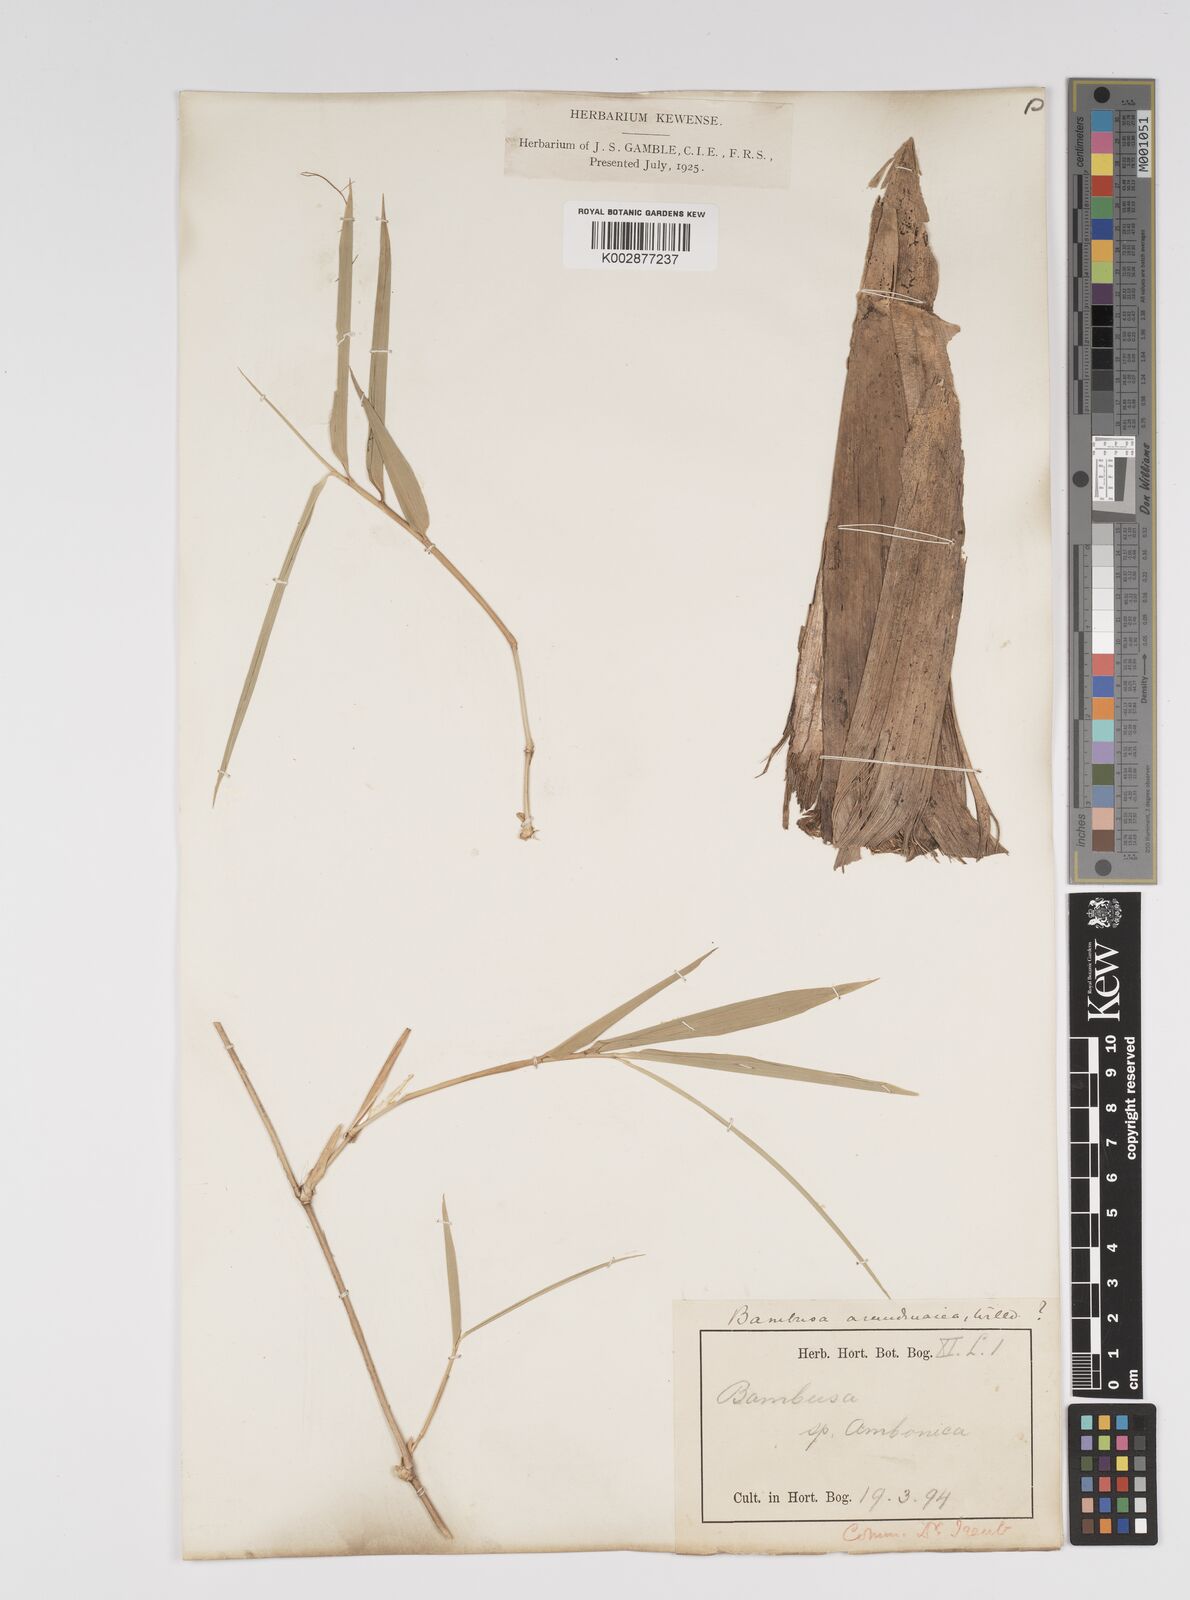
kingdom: Plantae
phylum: Tracheophyta
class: Liliopsida
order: Poales
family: Poaceae
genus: Bambusa
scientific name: Bambusa bambos
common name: Indian thorny bamboo
